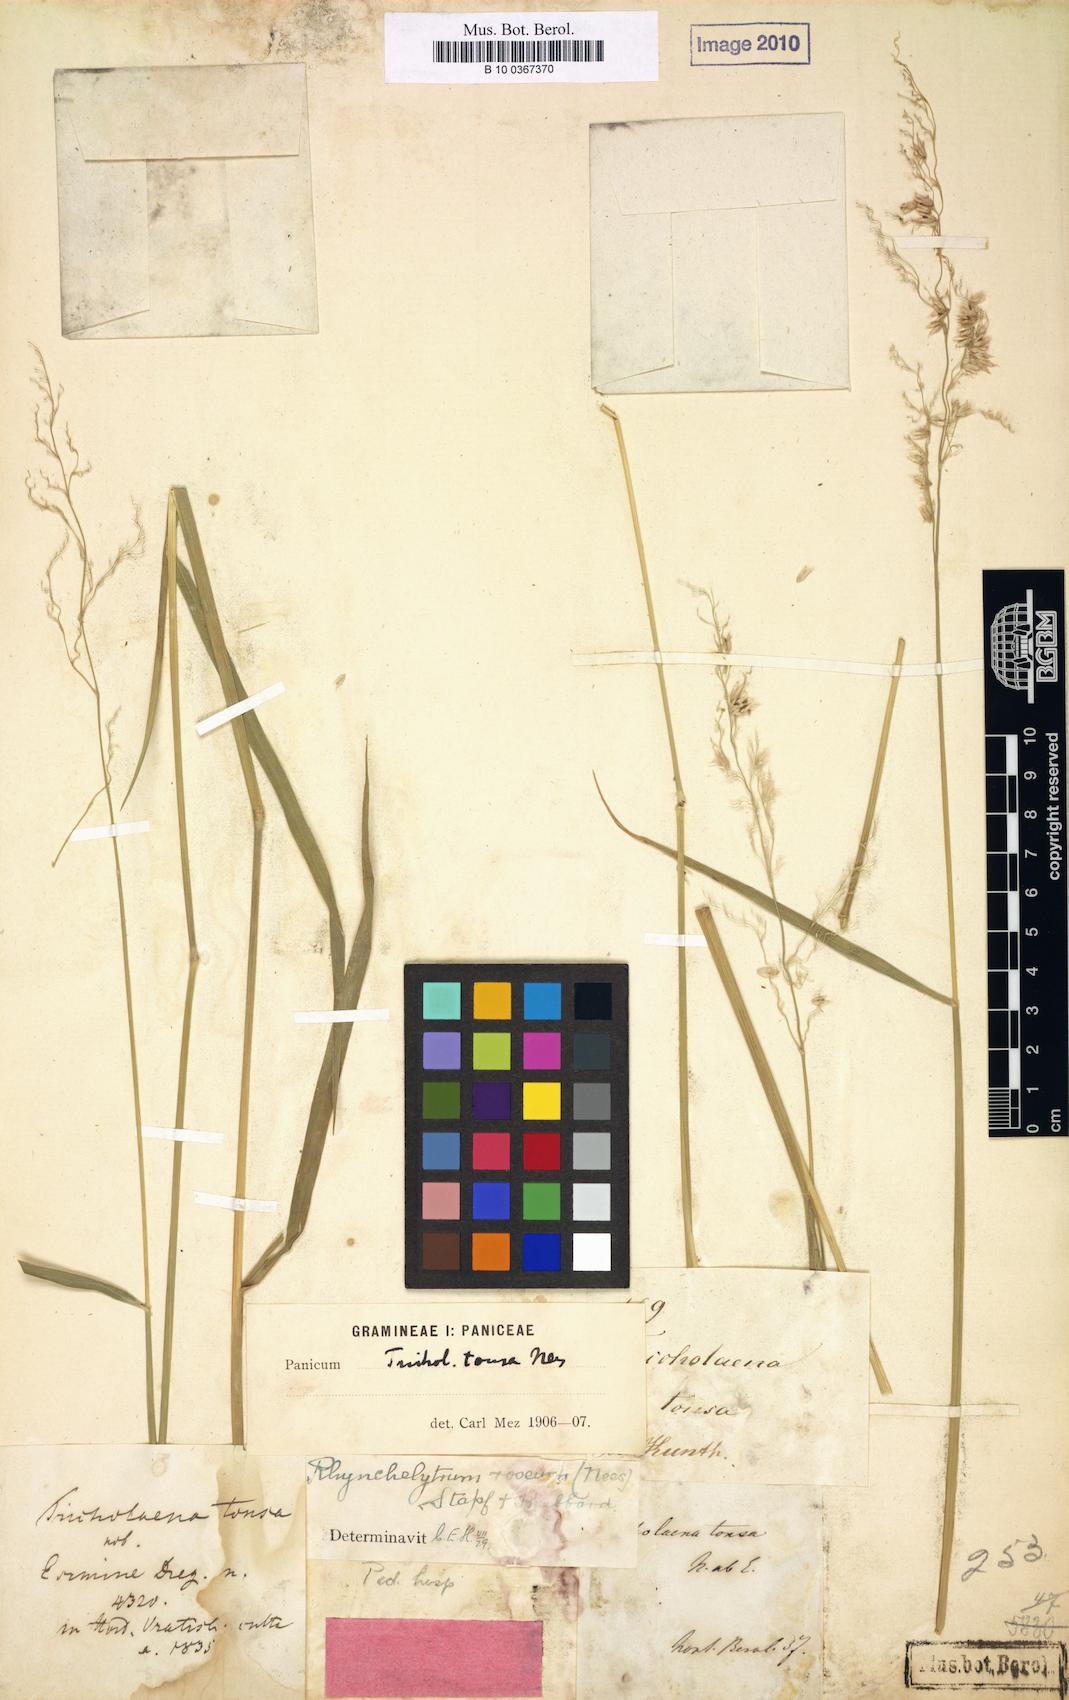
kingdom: Plantae
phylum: Tracheophyta
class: Liliopsida
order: Poales
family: Poaceae
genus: Melinis
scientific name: Melinis repens
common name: Rose natal grass
